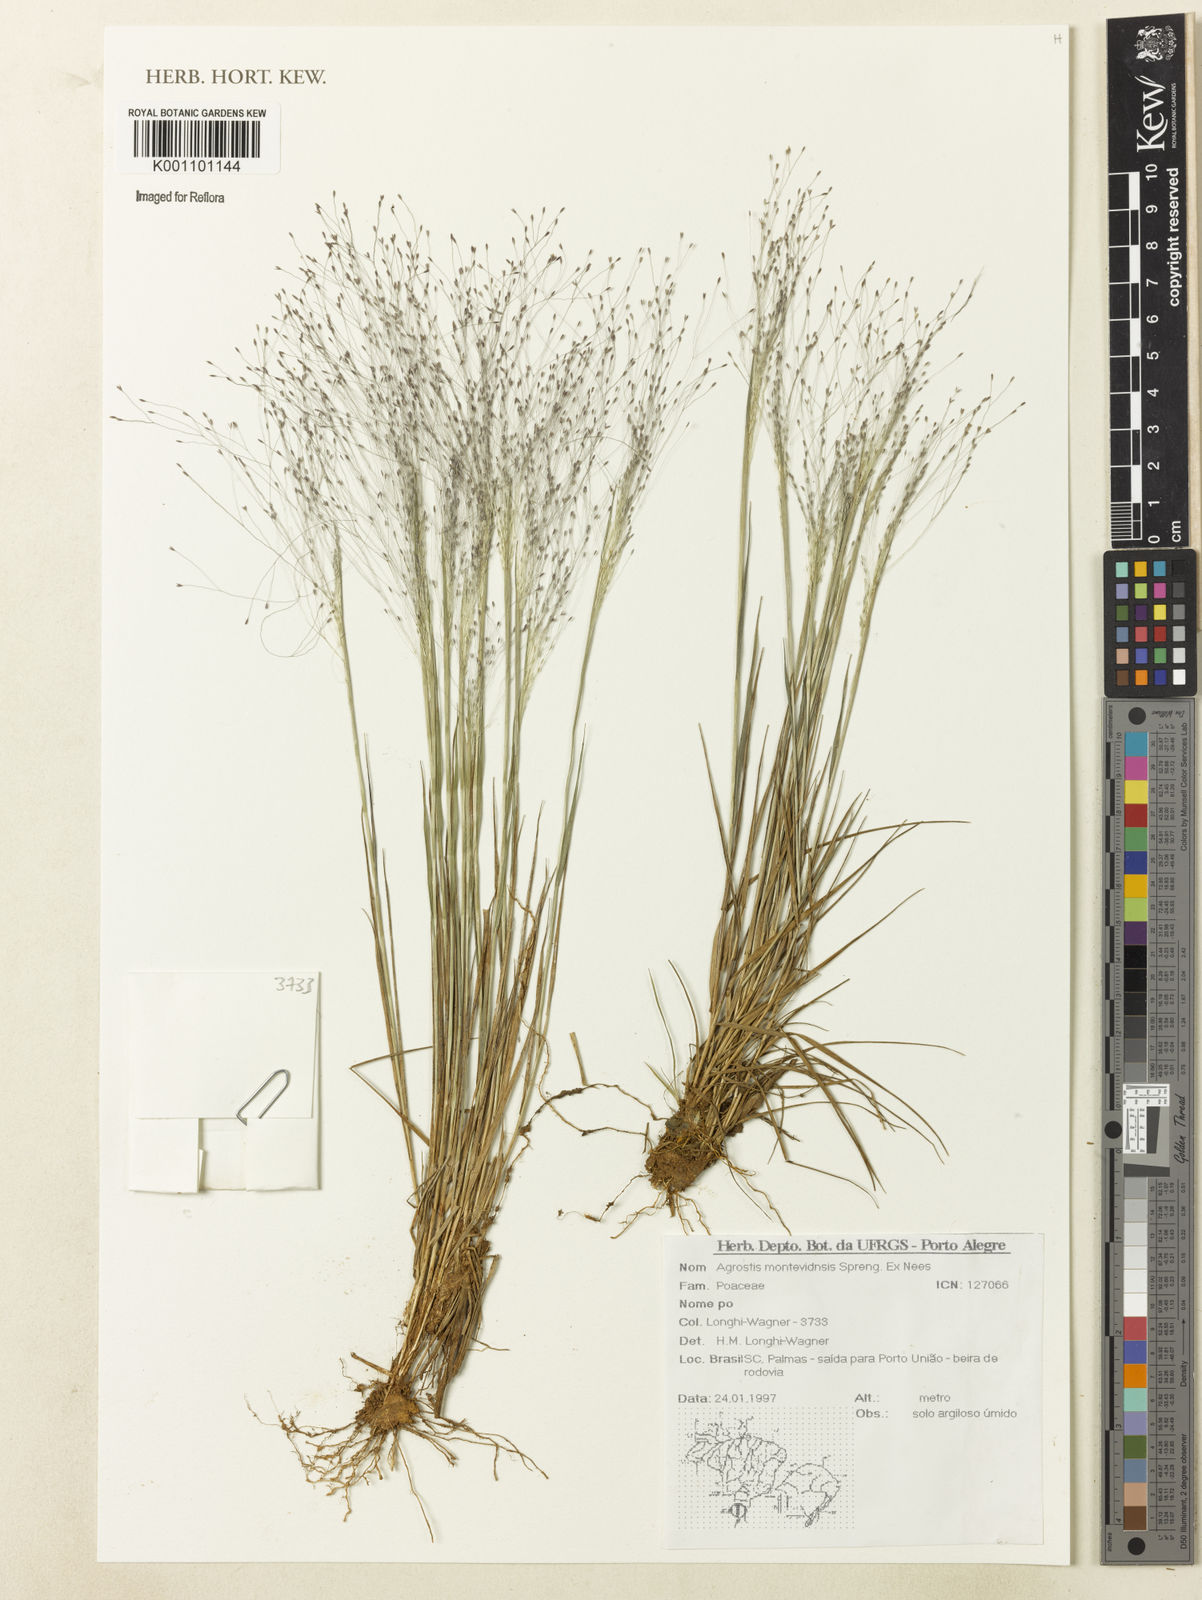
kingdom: Plantae
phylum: Tracheophyta
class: Liliopsida
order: Poales
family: Poaceae
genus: Agrostis
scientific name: Agrostis montevidensis
